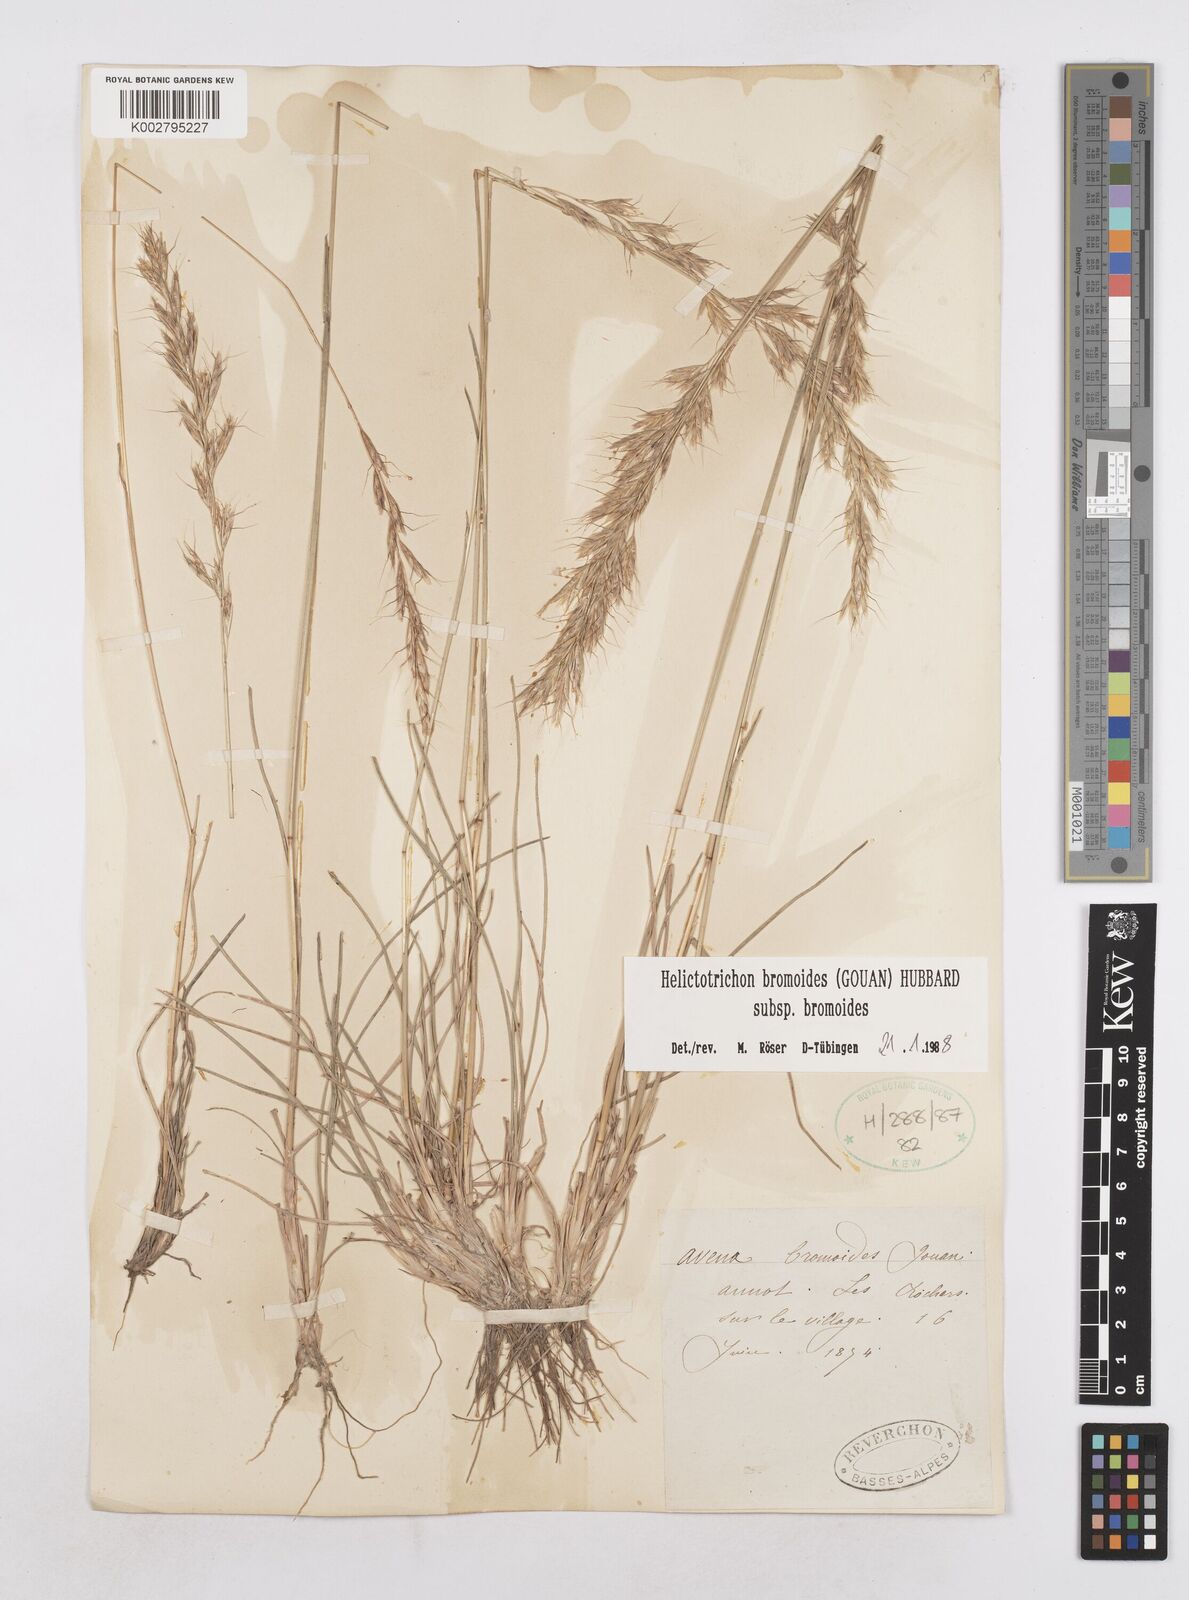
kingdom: Plantae
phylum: Tracheophyta
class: Liliopsida
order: Poales
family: Poaceae
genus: Helictochloa
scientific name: Helictochloa bromoides
